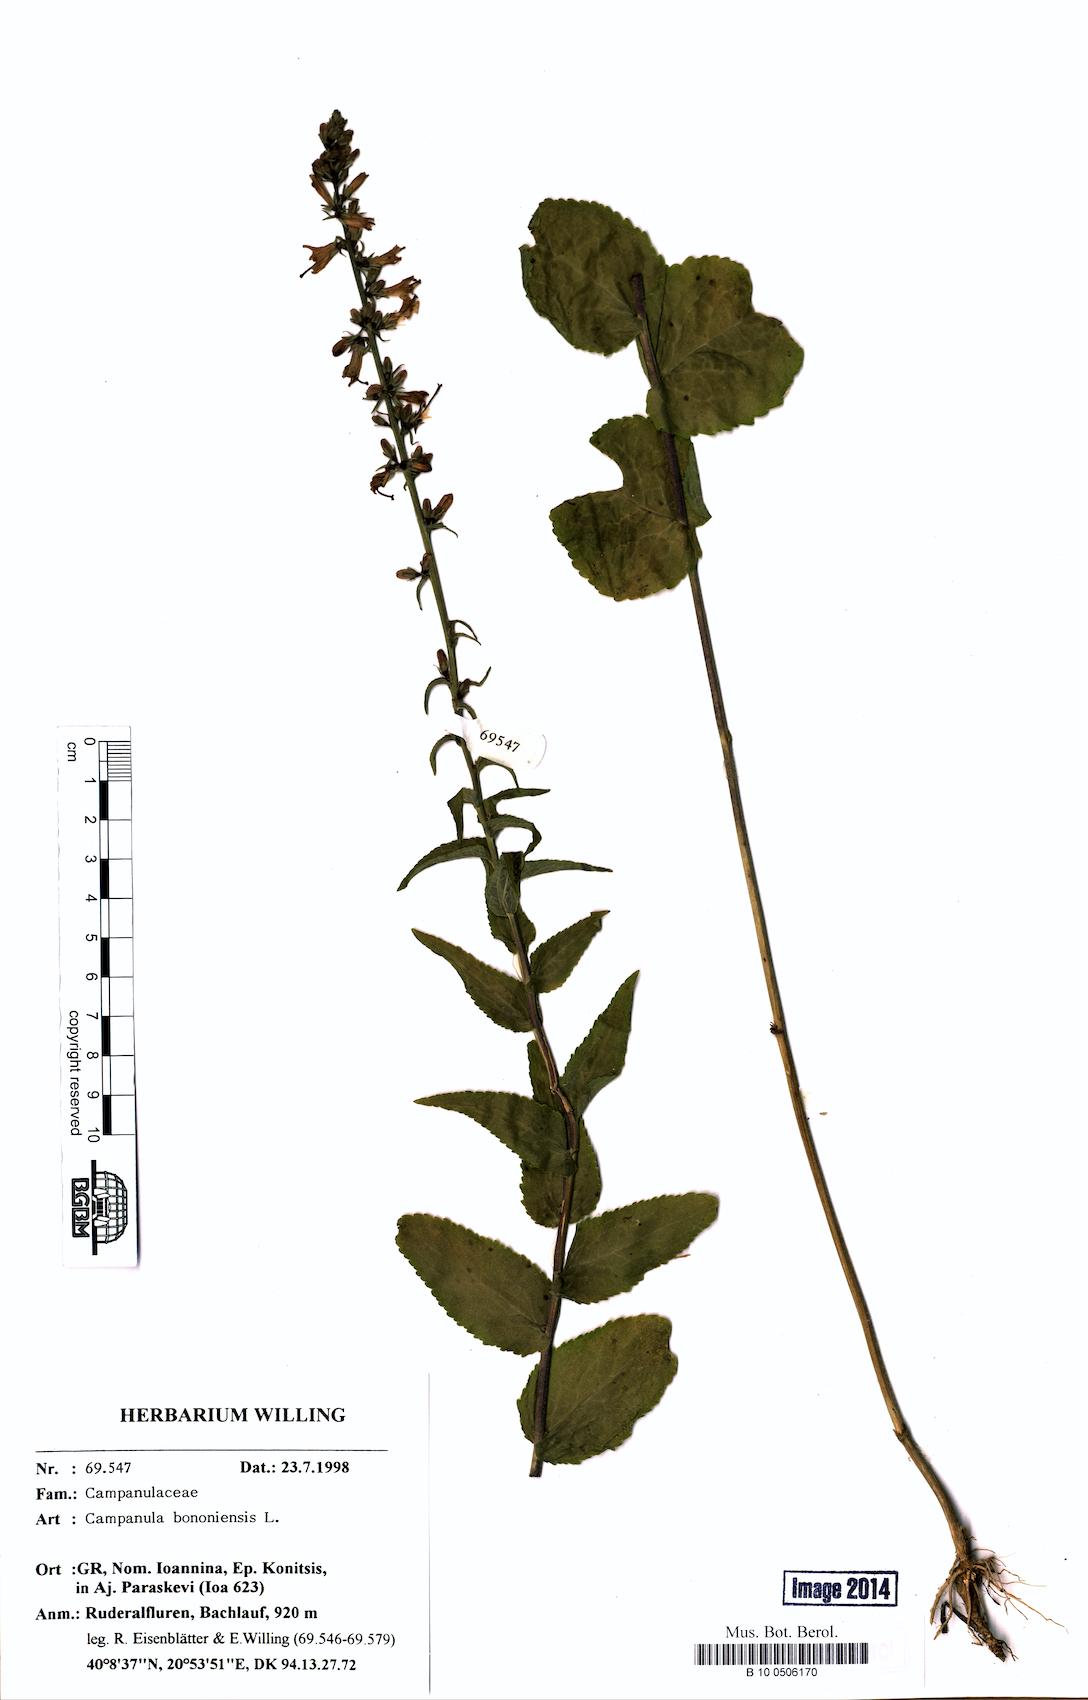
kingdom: Plantae
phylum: Tracheophyta
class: Magnoliopsida
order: Asterales
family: Campanulaceae
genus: Campanula
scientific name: Campanula bononiensis
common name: Pale bellflower
